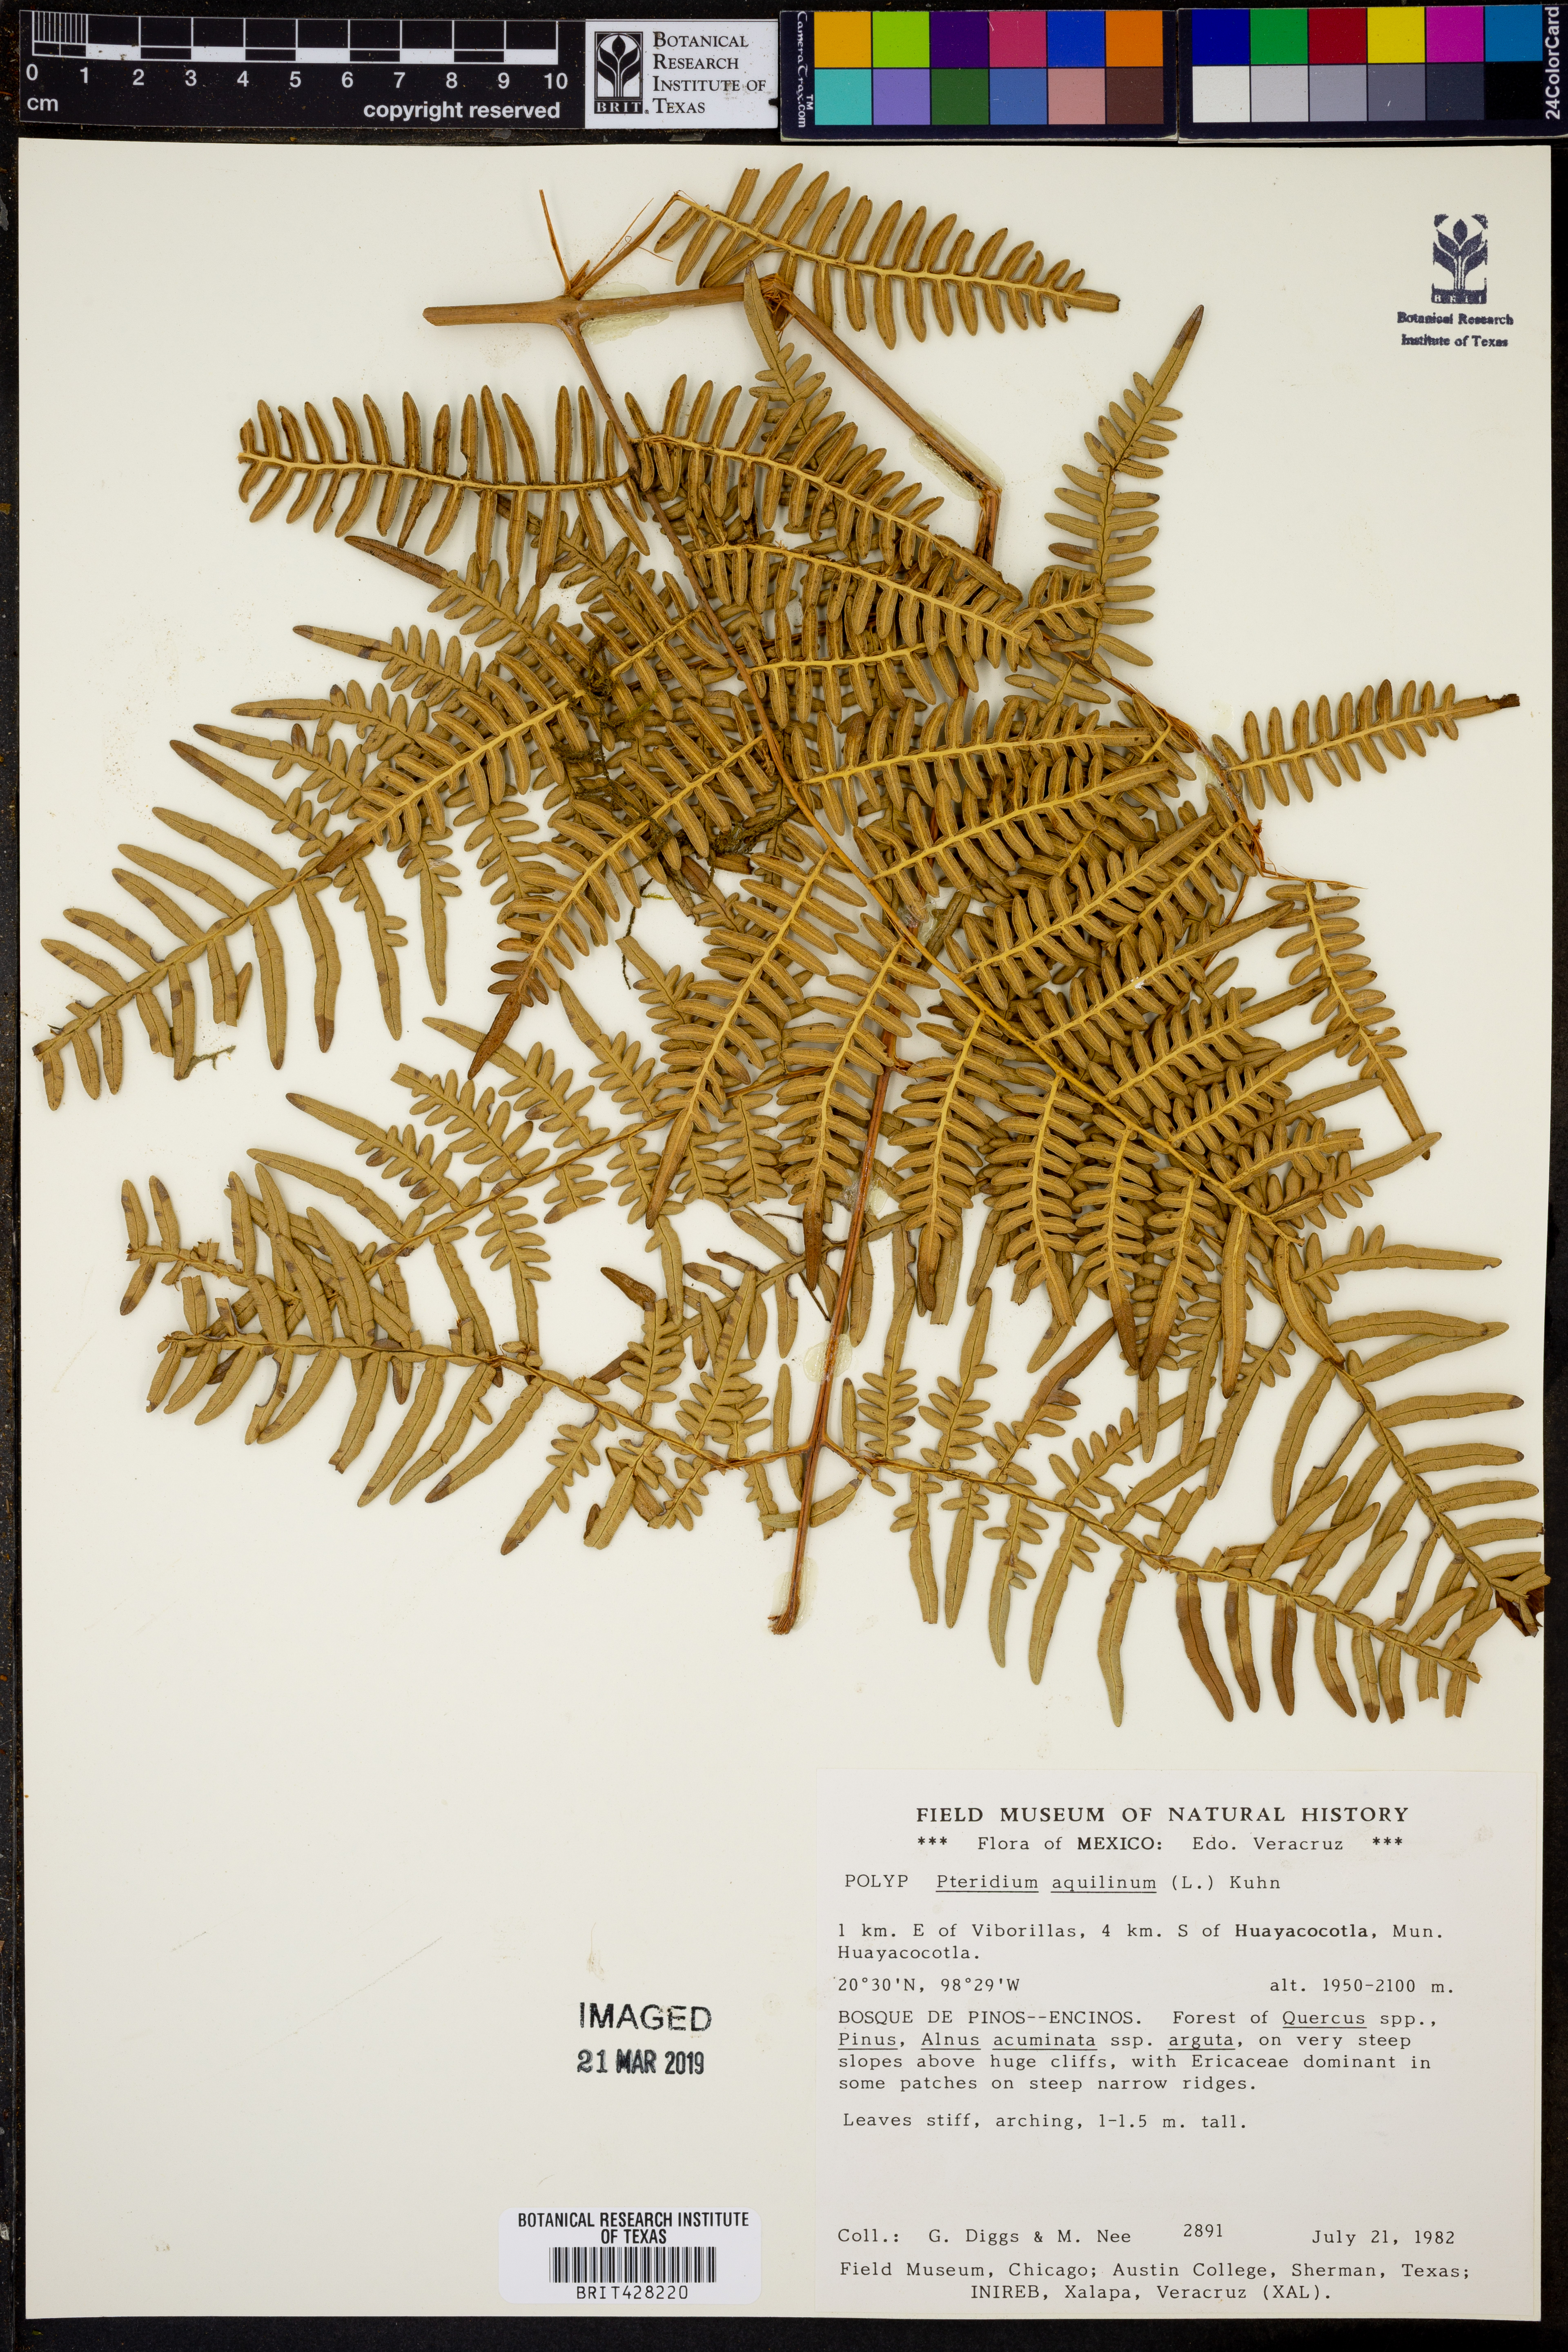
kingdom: Plantae
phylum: Tracheophyta
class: Polypodiopsida
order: Polypodiales
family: Dennstaedtiaceae
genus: Pteridium
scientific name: Pteridium aquilinum
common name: Bracken
